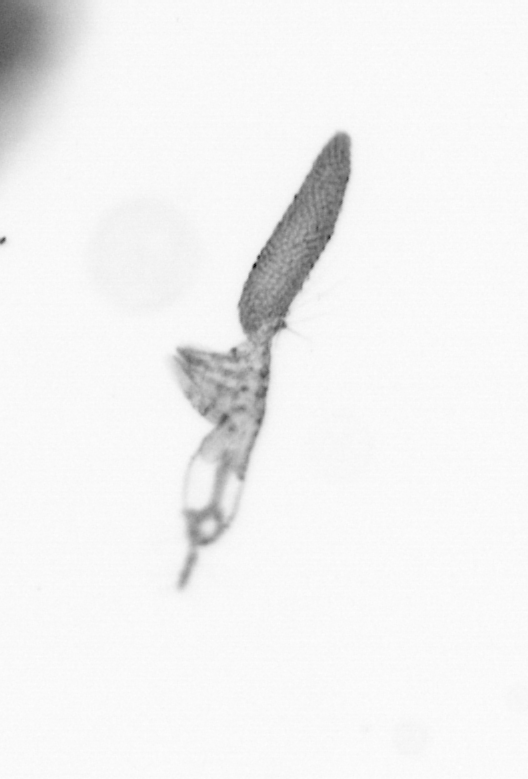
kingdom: Animalia
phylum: Arthropoda
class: Copepoda
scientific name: Copepoda
